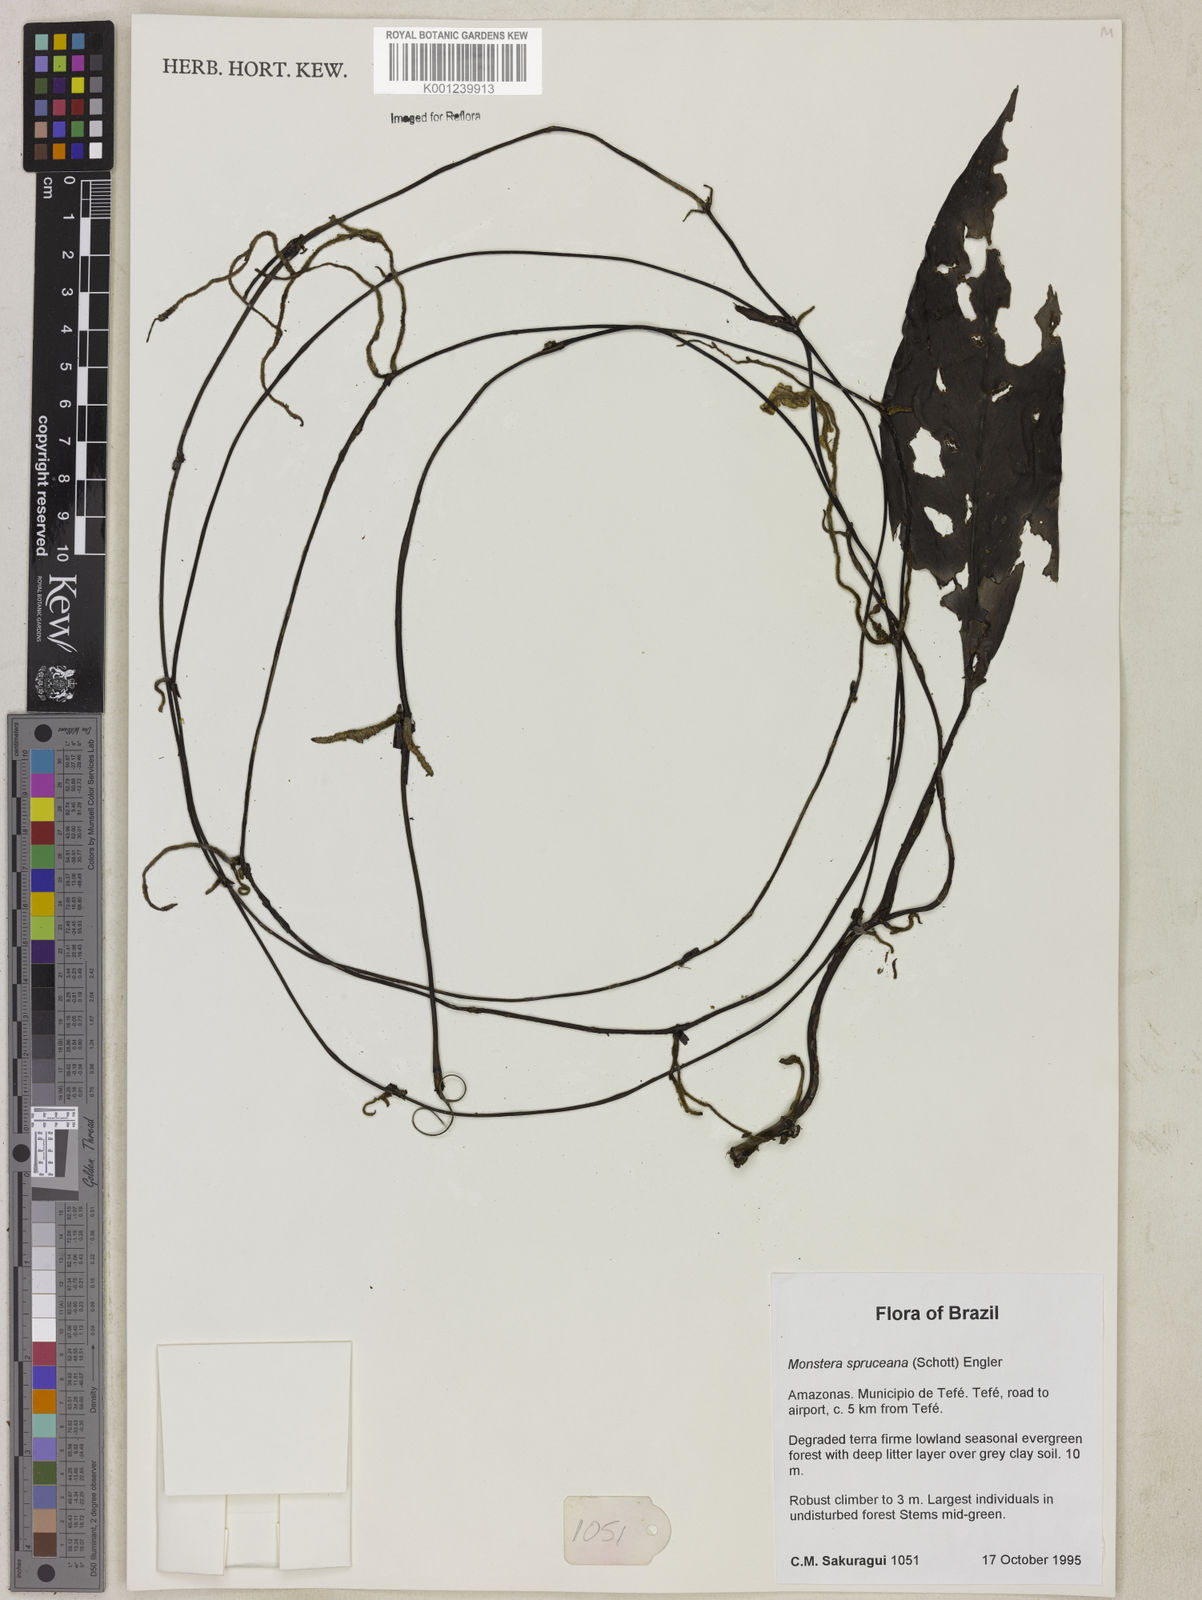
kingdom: Plantae
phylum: Tracheophyta
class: Liliopsida
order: Alismatales
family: Araceae
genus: Monstera
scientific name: Monstera spruceana
